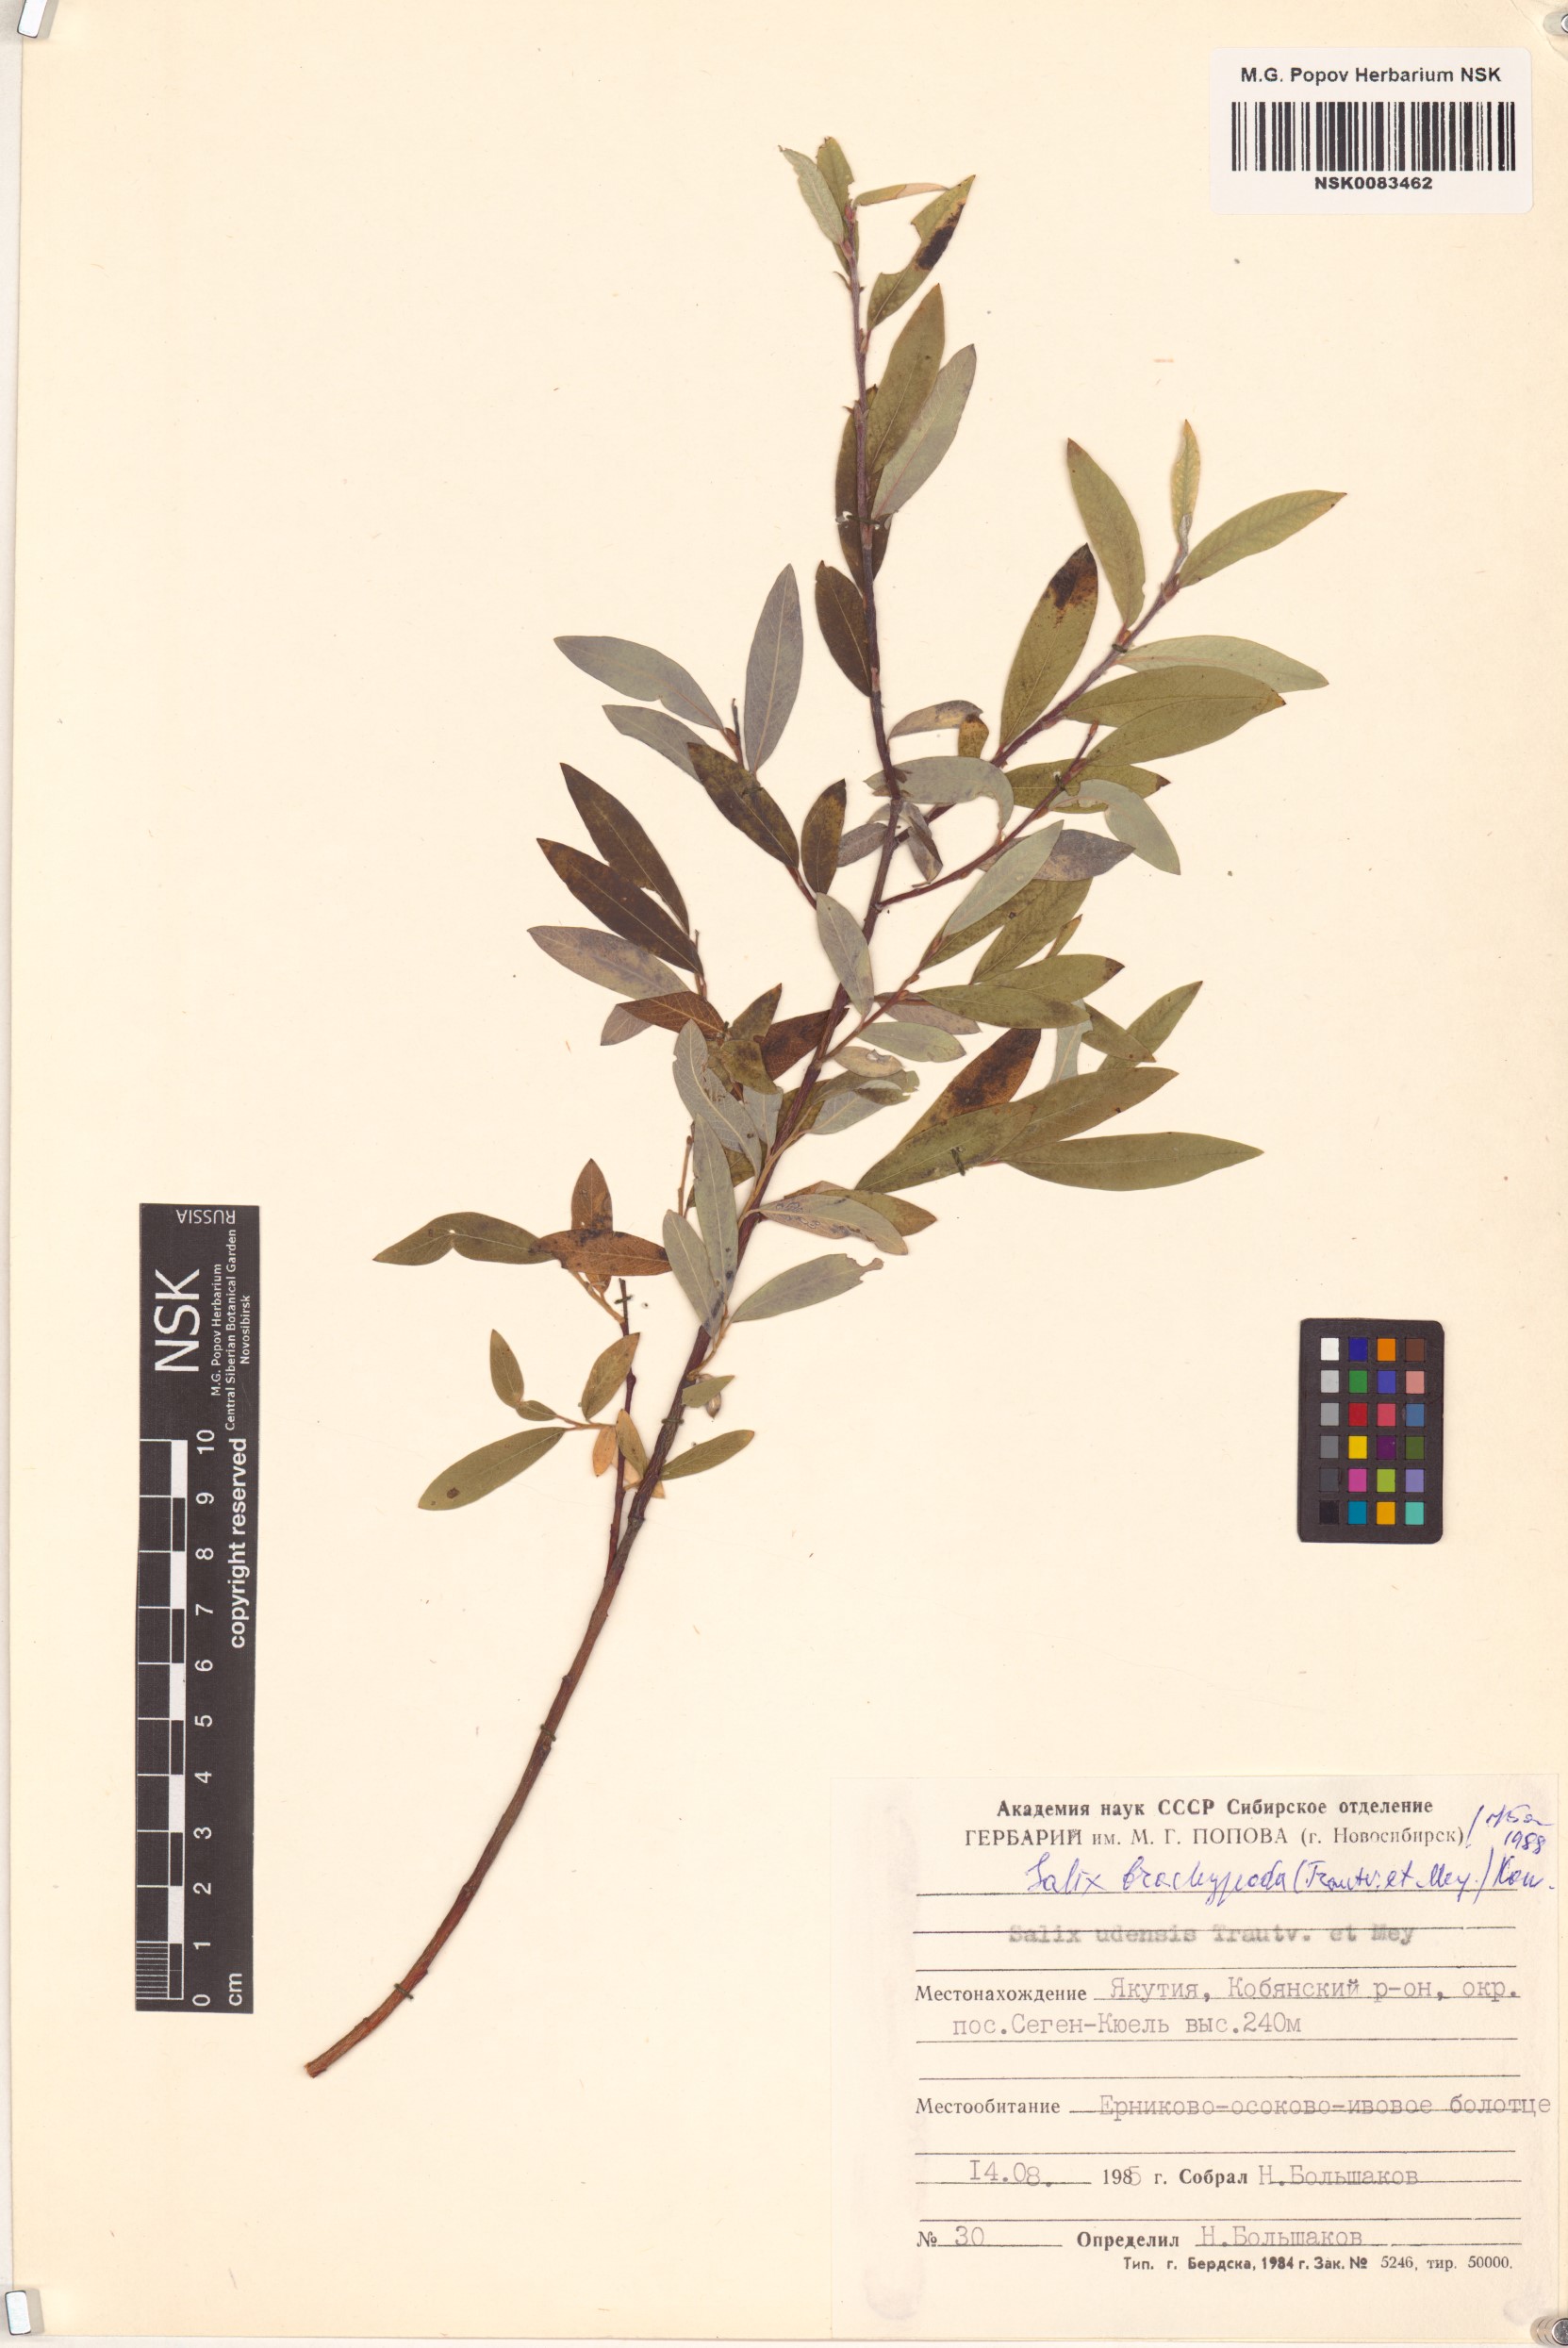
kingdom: Plantae
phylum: Tracheophyta
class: Magnoliopsida
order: Malpighiales
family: Salicaceae
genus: Salix
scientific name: Salix brachypoda
